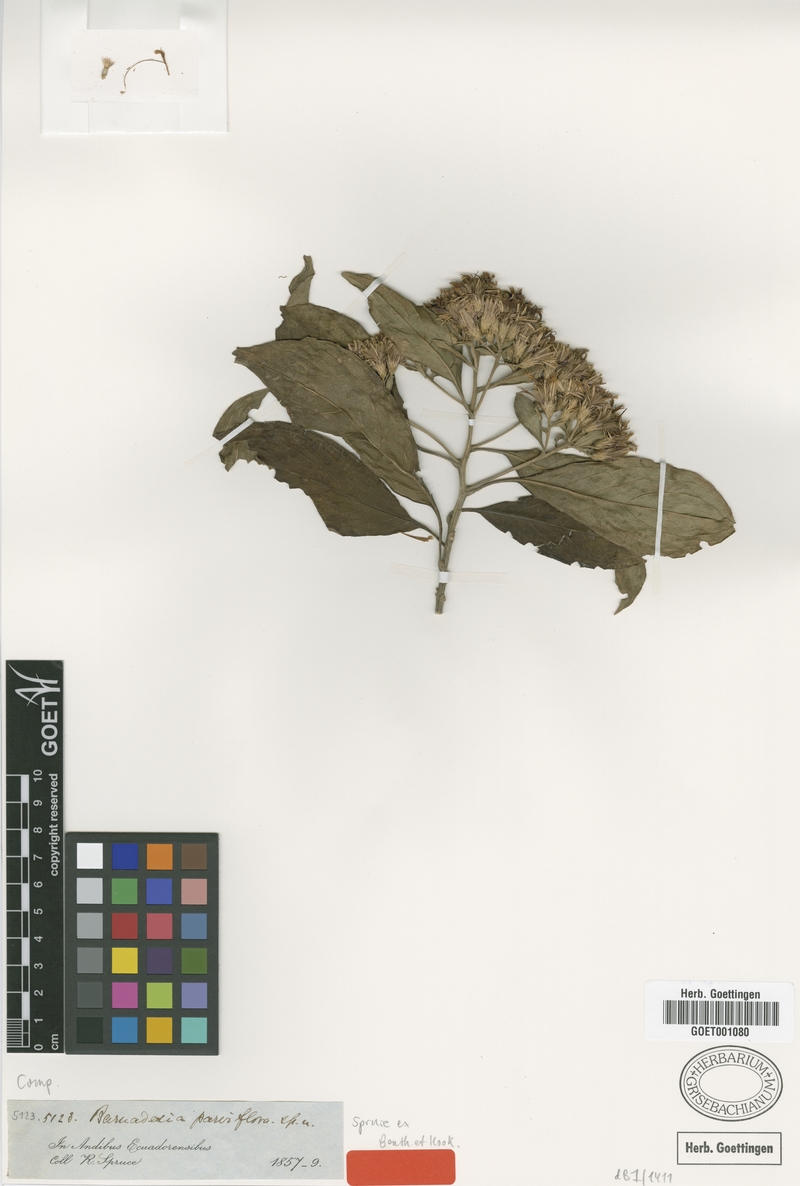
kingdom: Plantae
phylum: Tracheophyta
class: Magnoliopsida
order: Asterales
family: Asteraceae
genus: Barnadesia
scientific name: Barnadesia parviflora
